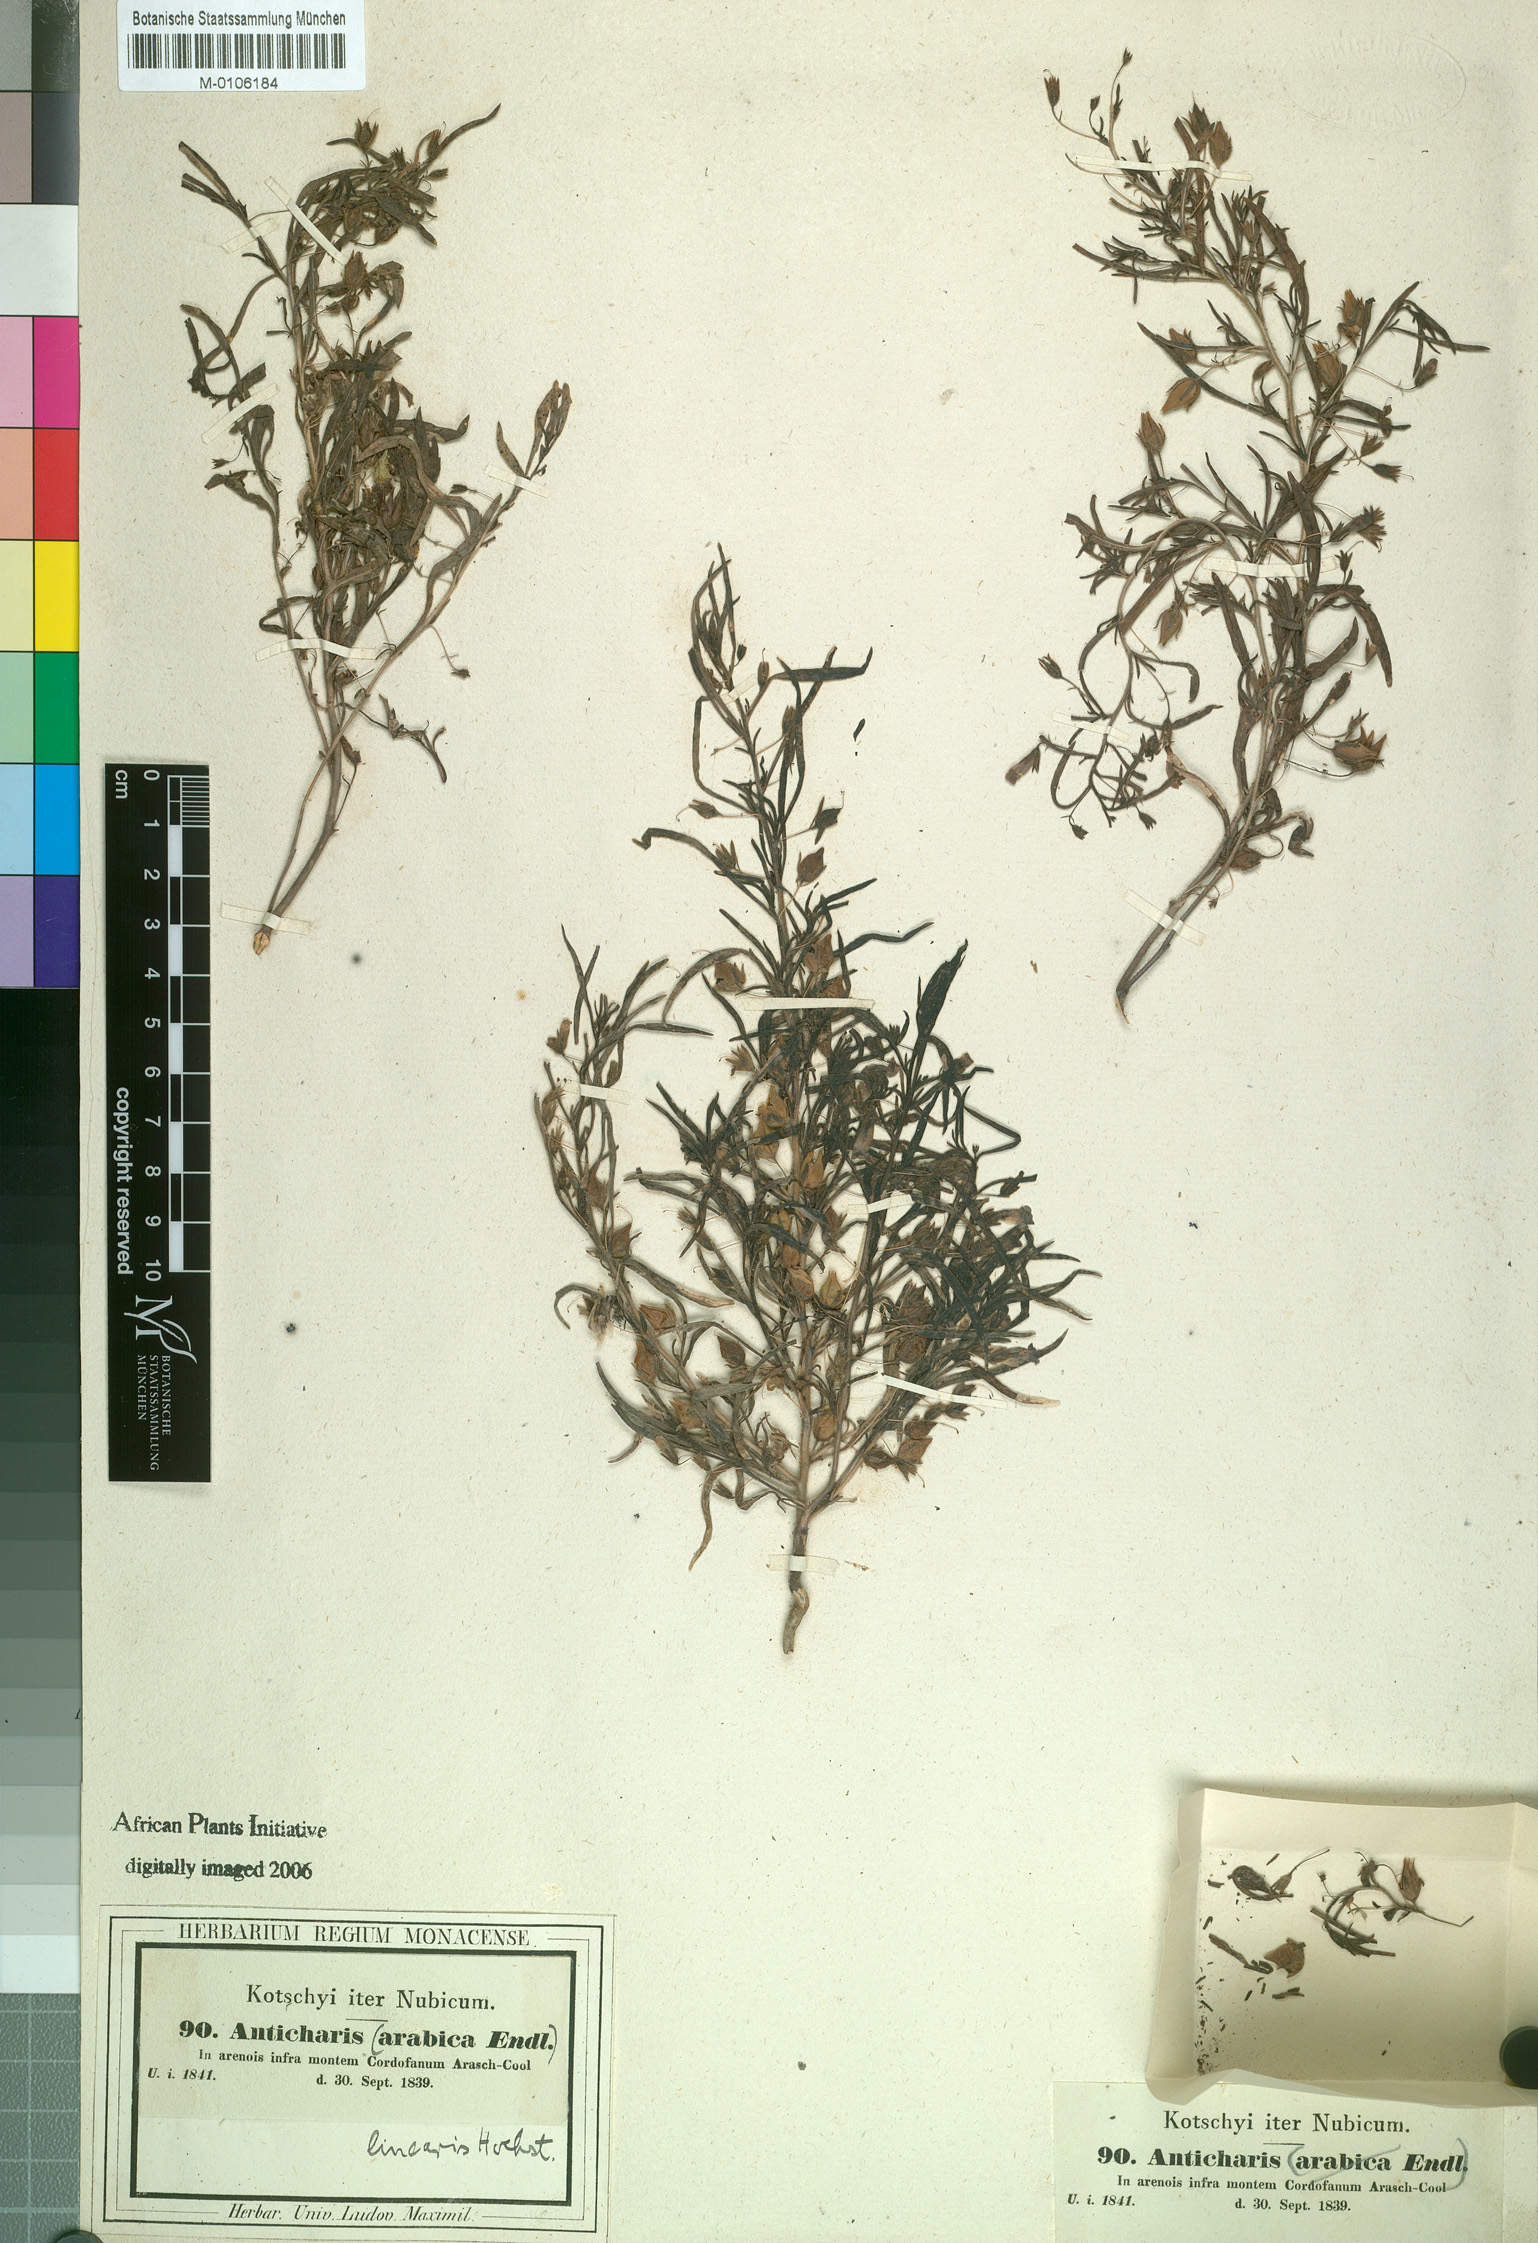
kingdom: Plantae
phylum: Tracheophyta
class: Magnoliopsida
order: Lamiales
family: Scrophulariaceae
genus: Anticharis
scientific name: Anticharis arabica
